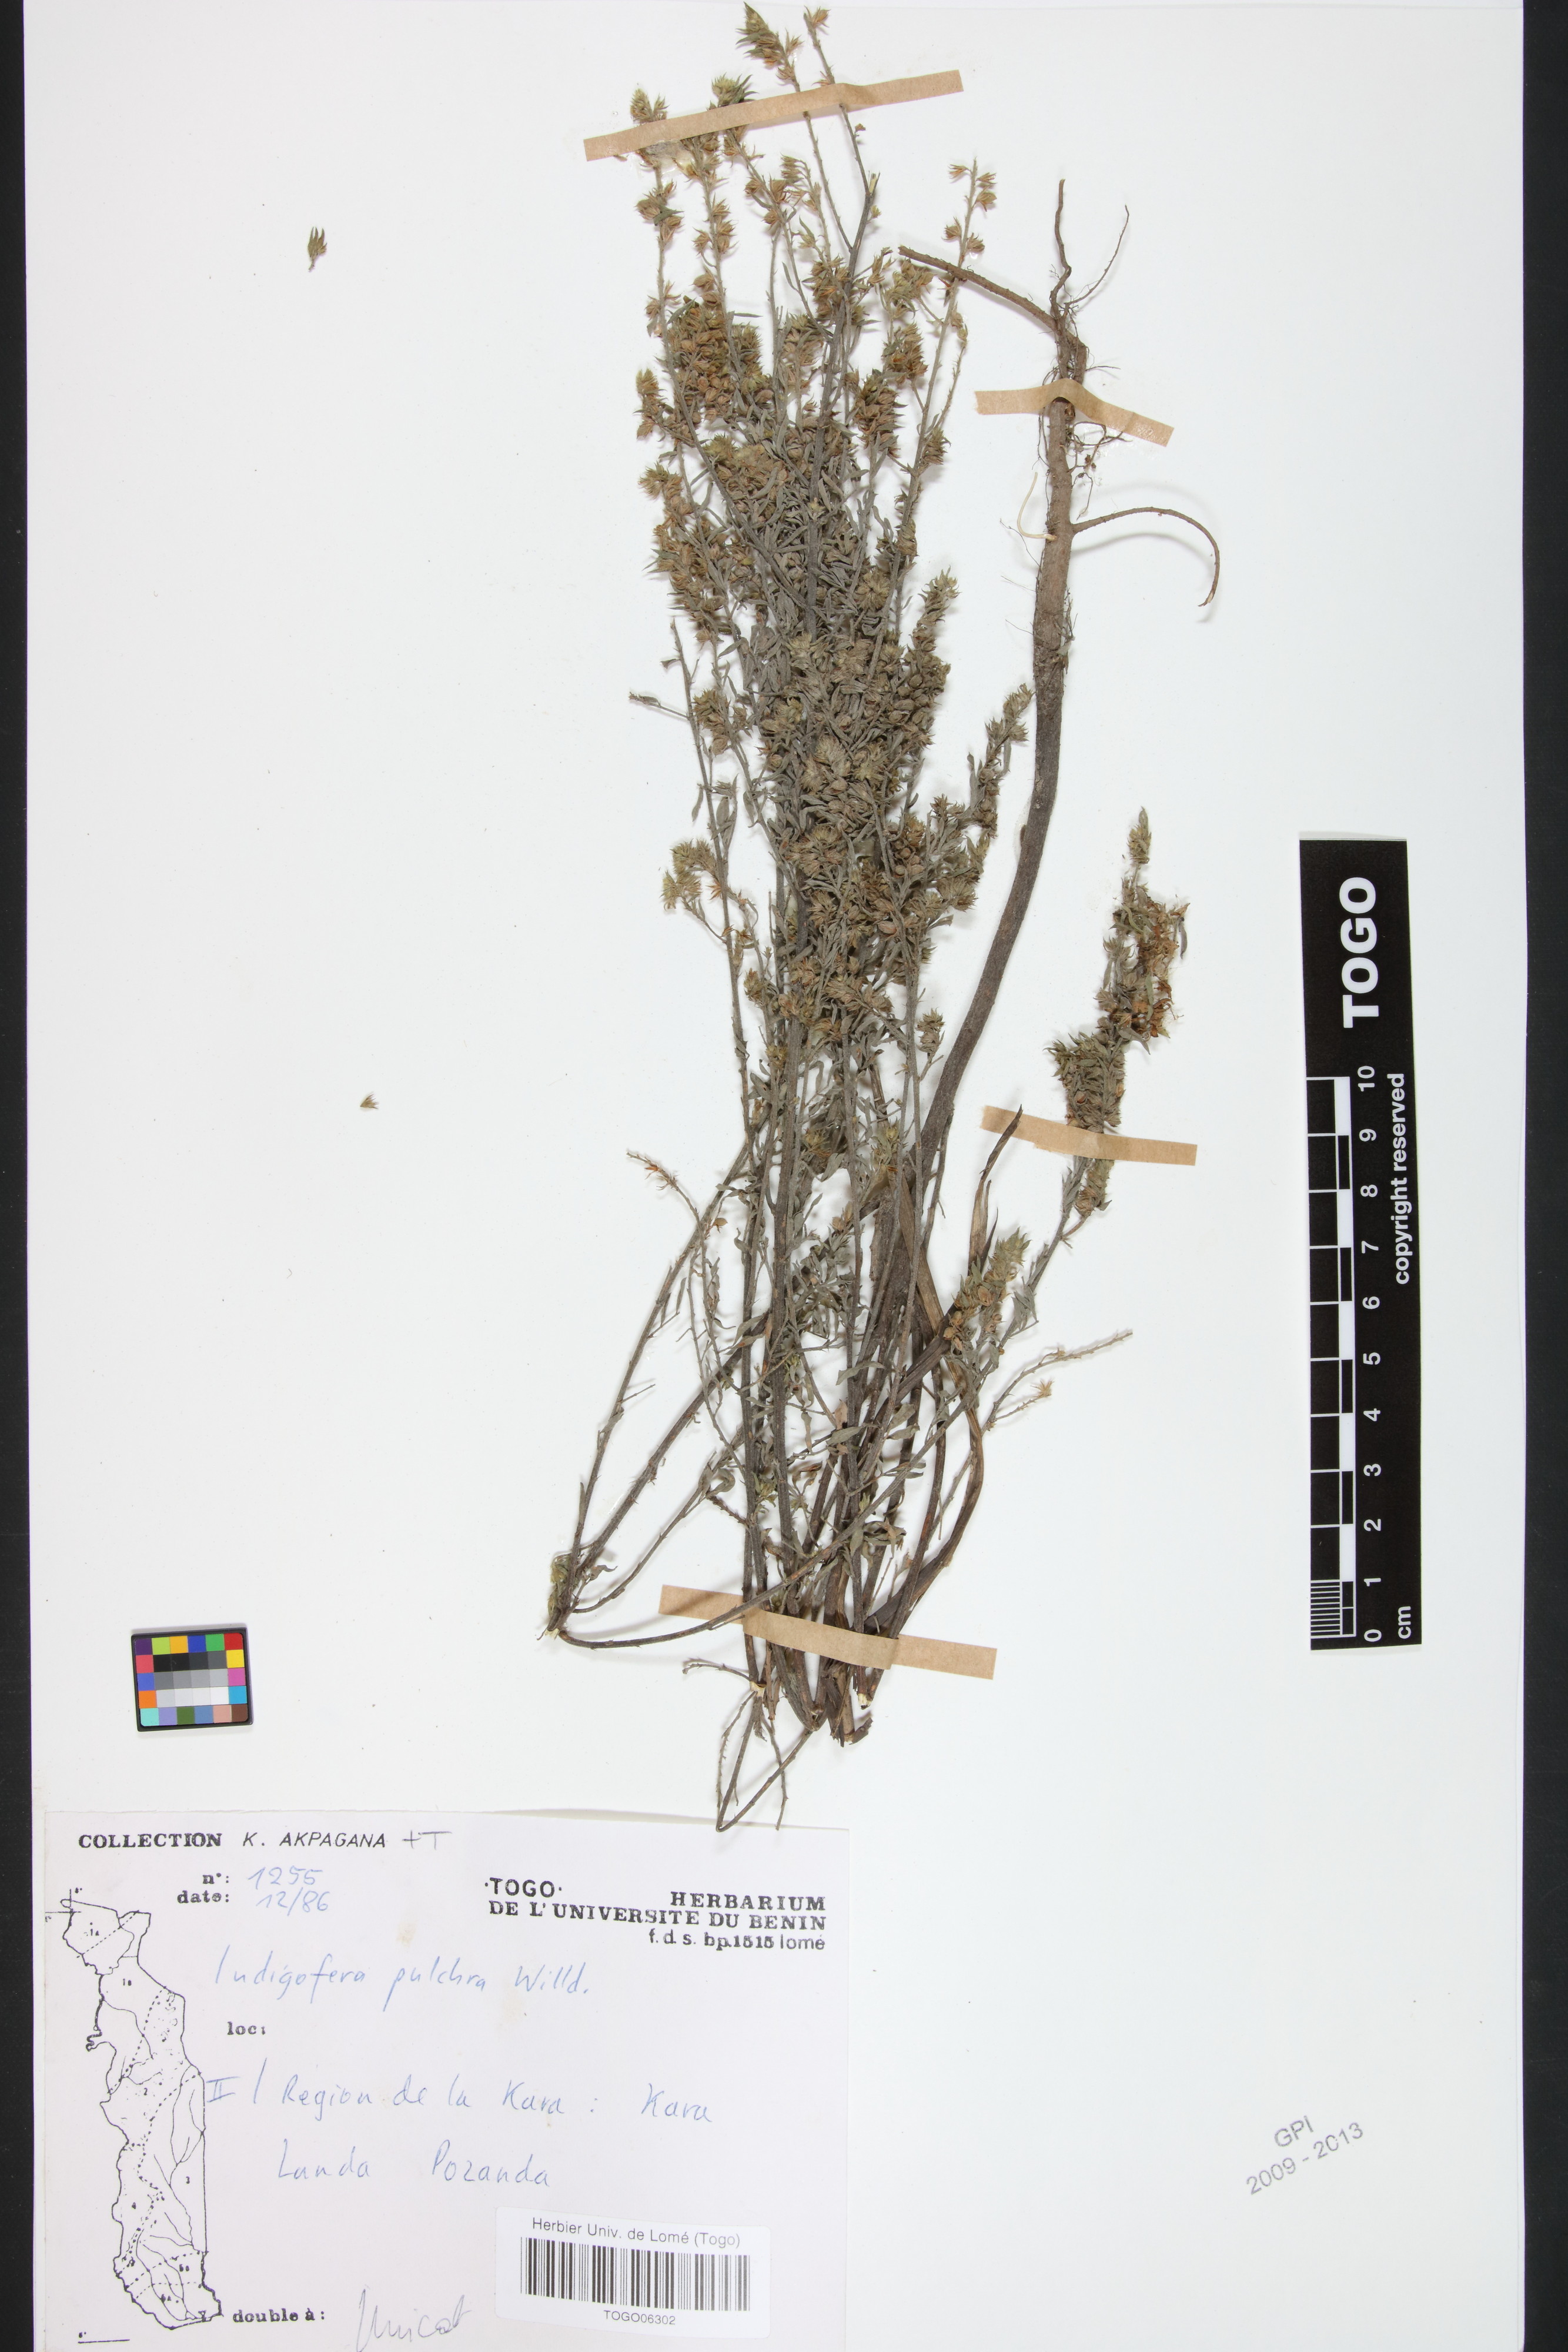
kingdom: Plantae
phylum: Tracheophyta
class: Magnoliopsida
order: Fabales
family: Fabaceae
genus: Indigofera
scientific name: Indigofera pulchra
